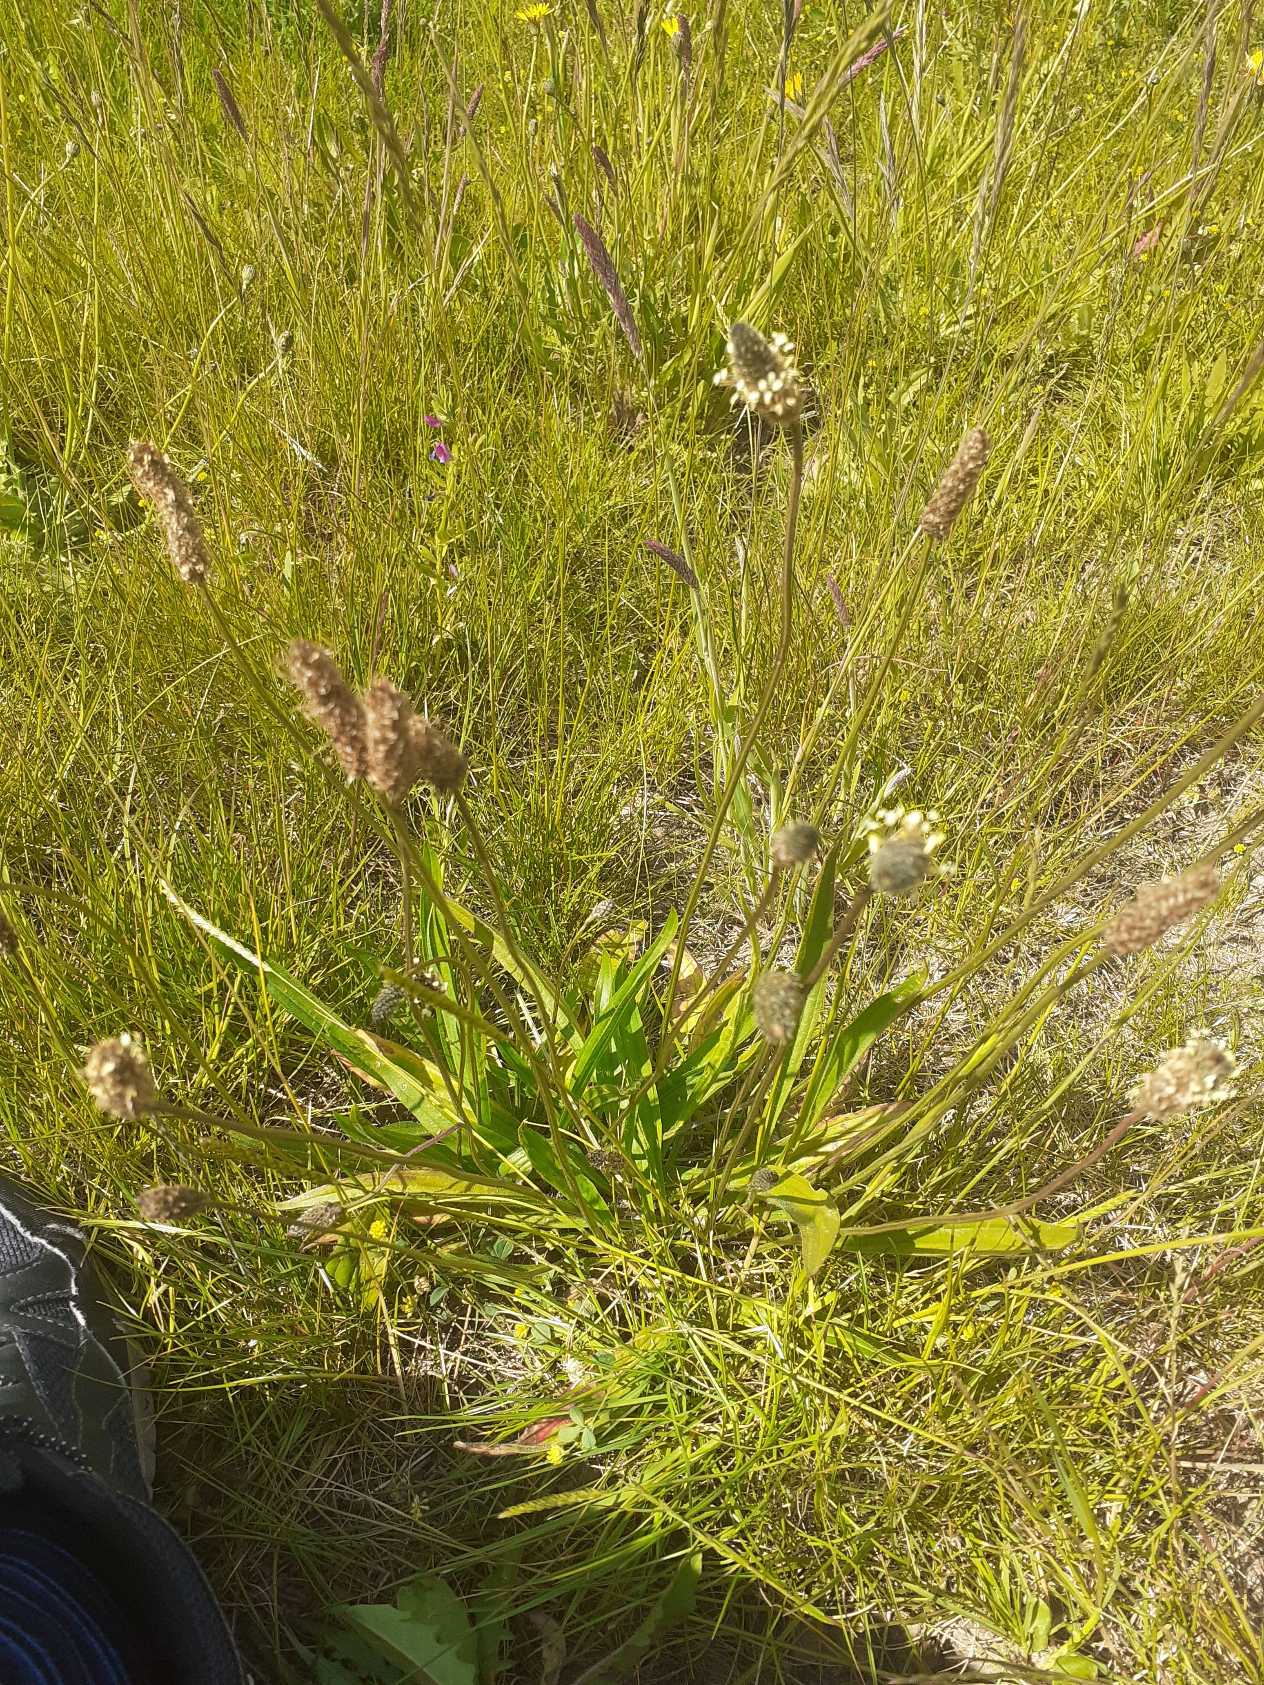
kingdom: Plantae
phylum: Tracheophyta
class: Magnoliopsida
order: Lamiales
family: Plantaginaceae
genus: Plantago
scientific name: Plantago lanceolata
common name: Lancet-vejbred
